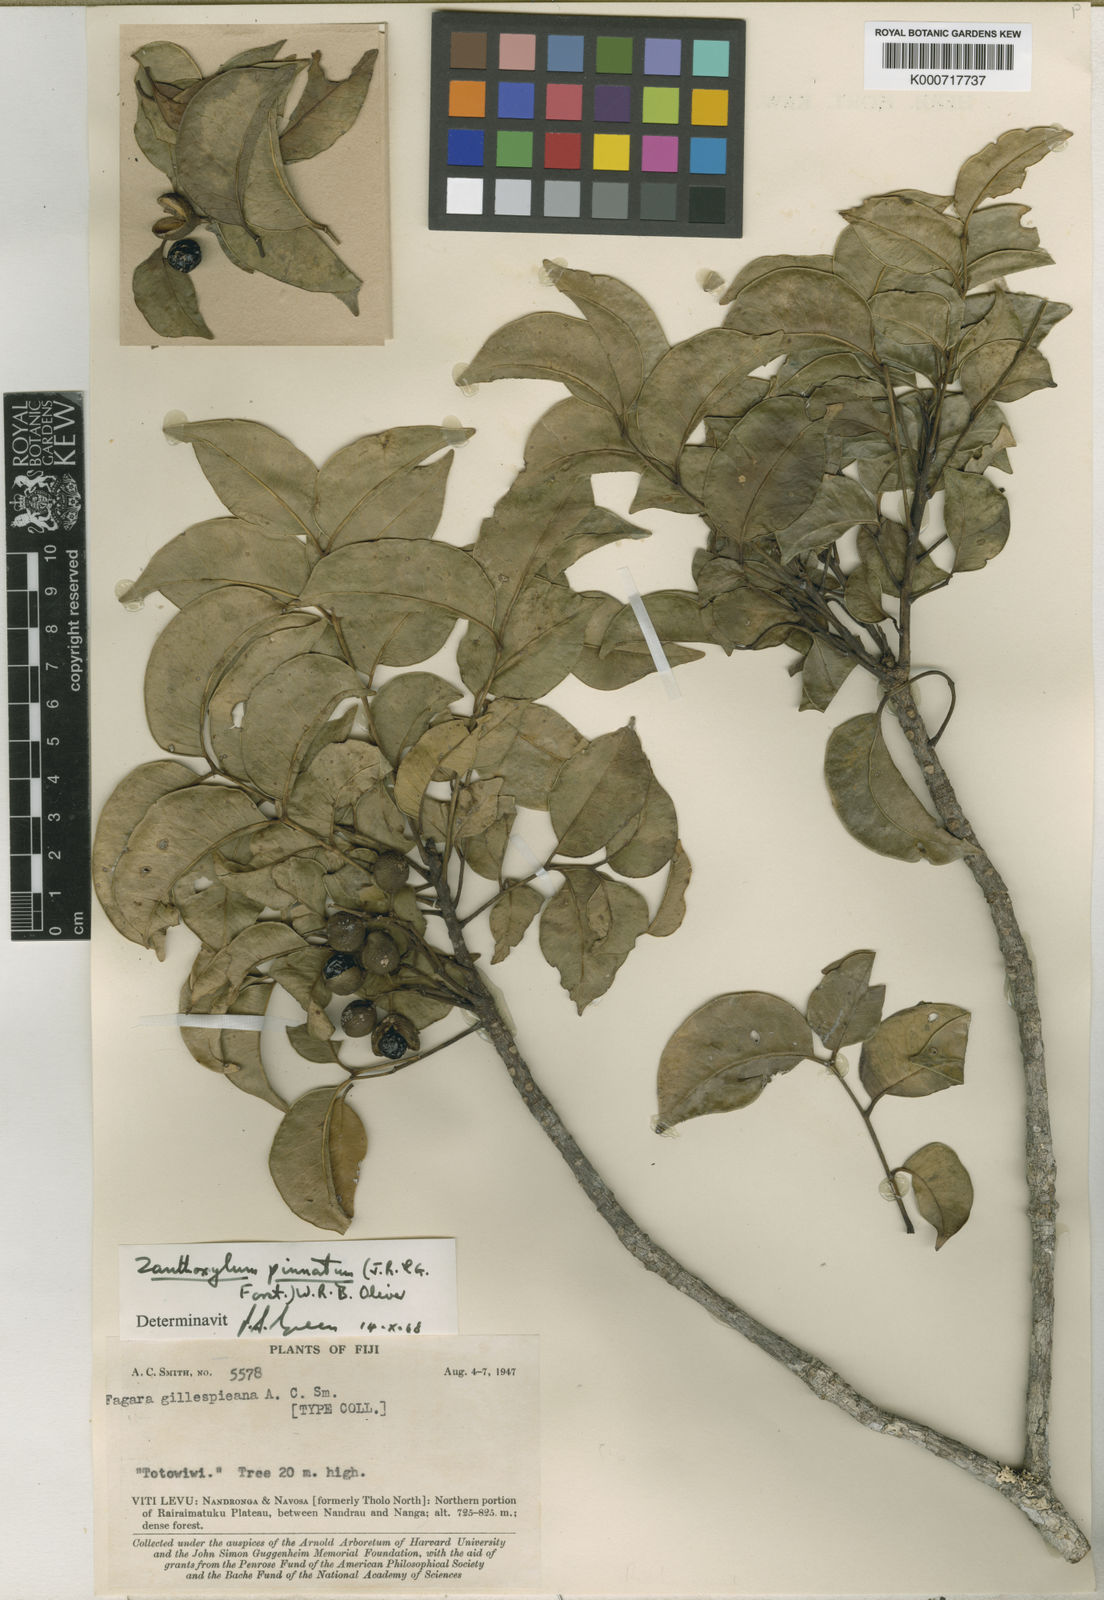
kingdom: Plantae
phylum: Tracheophyta
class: Magnoliopsida
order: Sapindales
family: Rutaceae
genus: Zanthoxylum
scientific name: Zanthoxylum pinnatum
